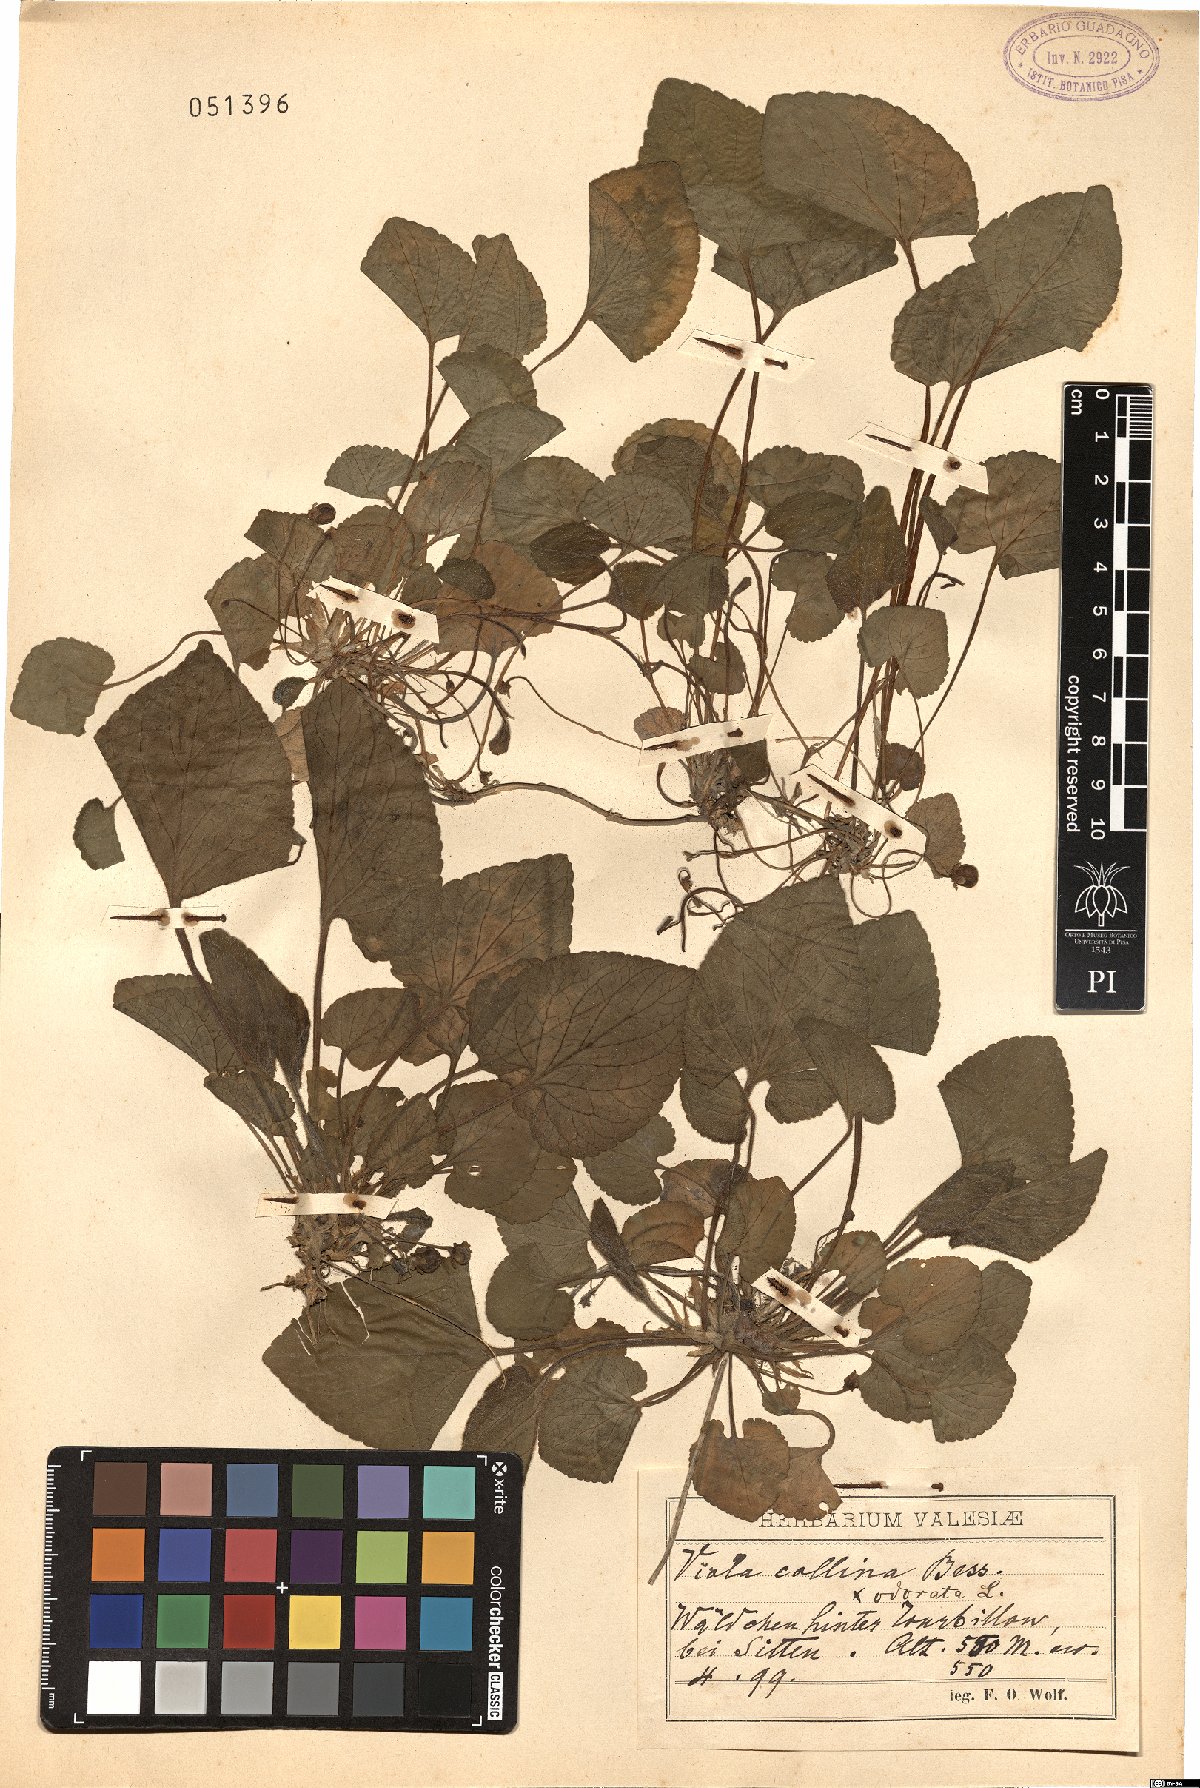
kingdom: Plantae
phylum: Tracheophyta
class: Magnoliopsida
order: Malpighiales
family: Violaceae
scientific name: Violaceae
